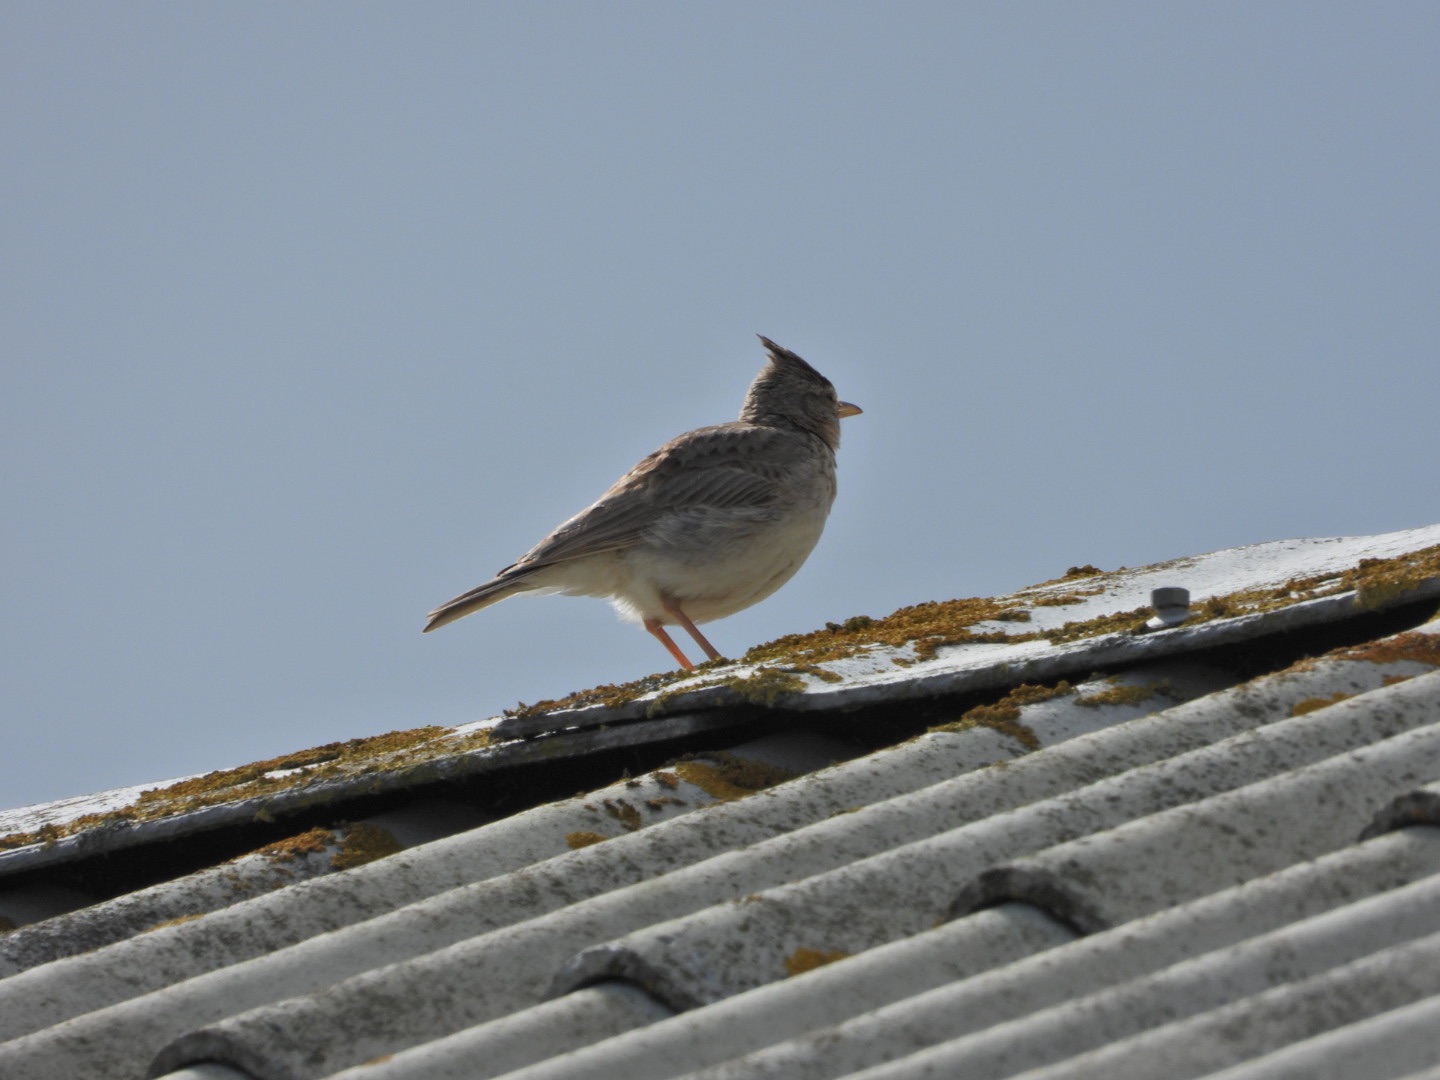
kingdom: Animalia
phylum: Chordata
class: Aves
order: Passeriformes
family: Alaudidae
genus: Galerida
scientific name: Galerida cristata
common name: Toplærke
